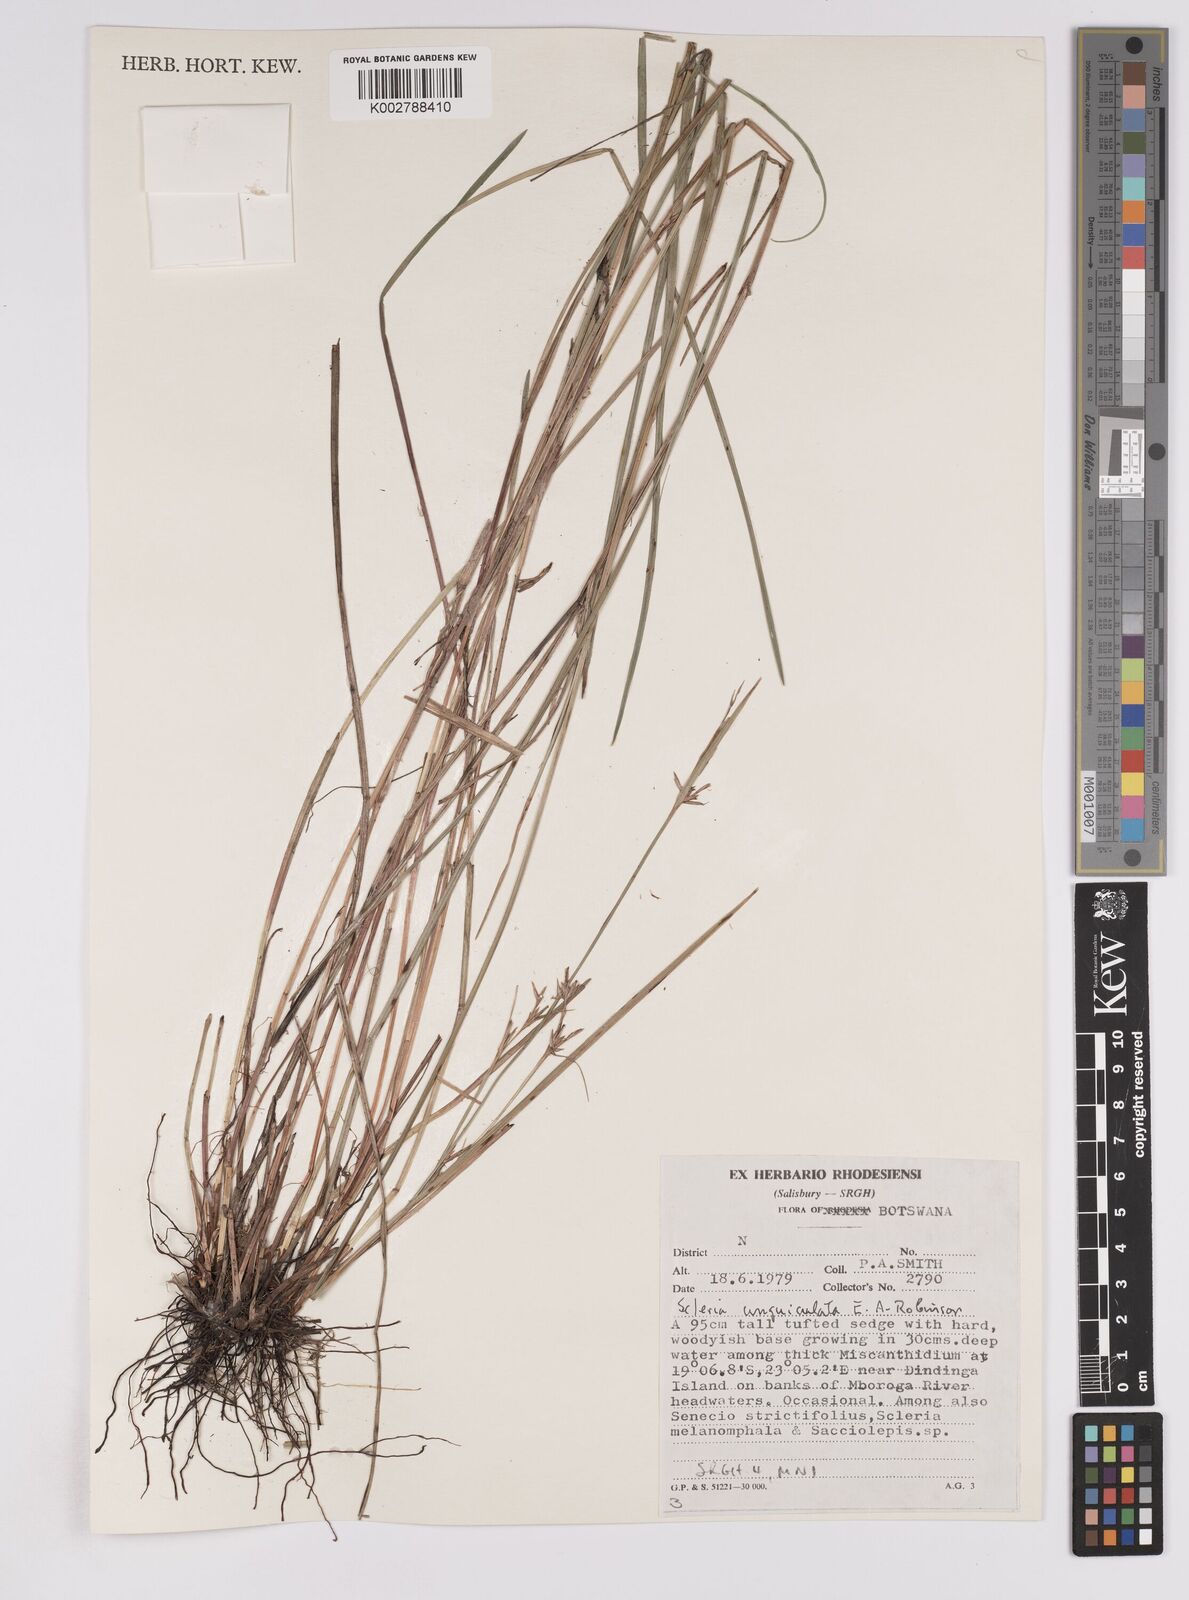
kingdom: Plantae
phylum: Tracheophyta
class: Liliopsida
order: Poales
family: Cyperaceae
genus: Scleria
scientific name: Scleria unguiculata
